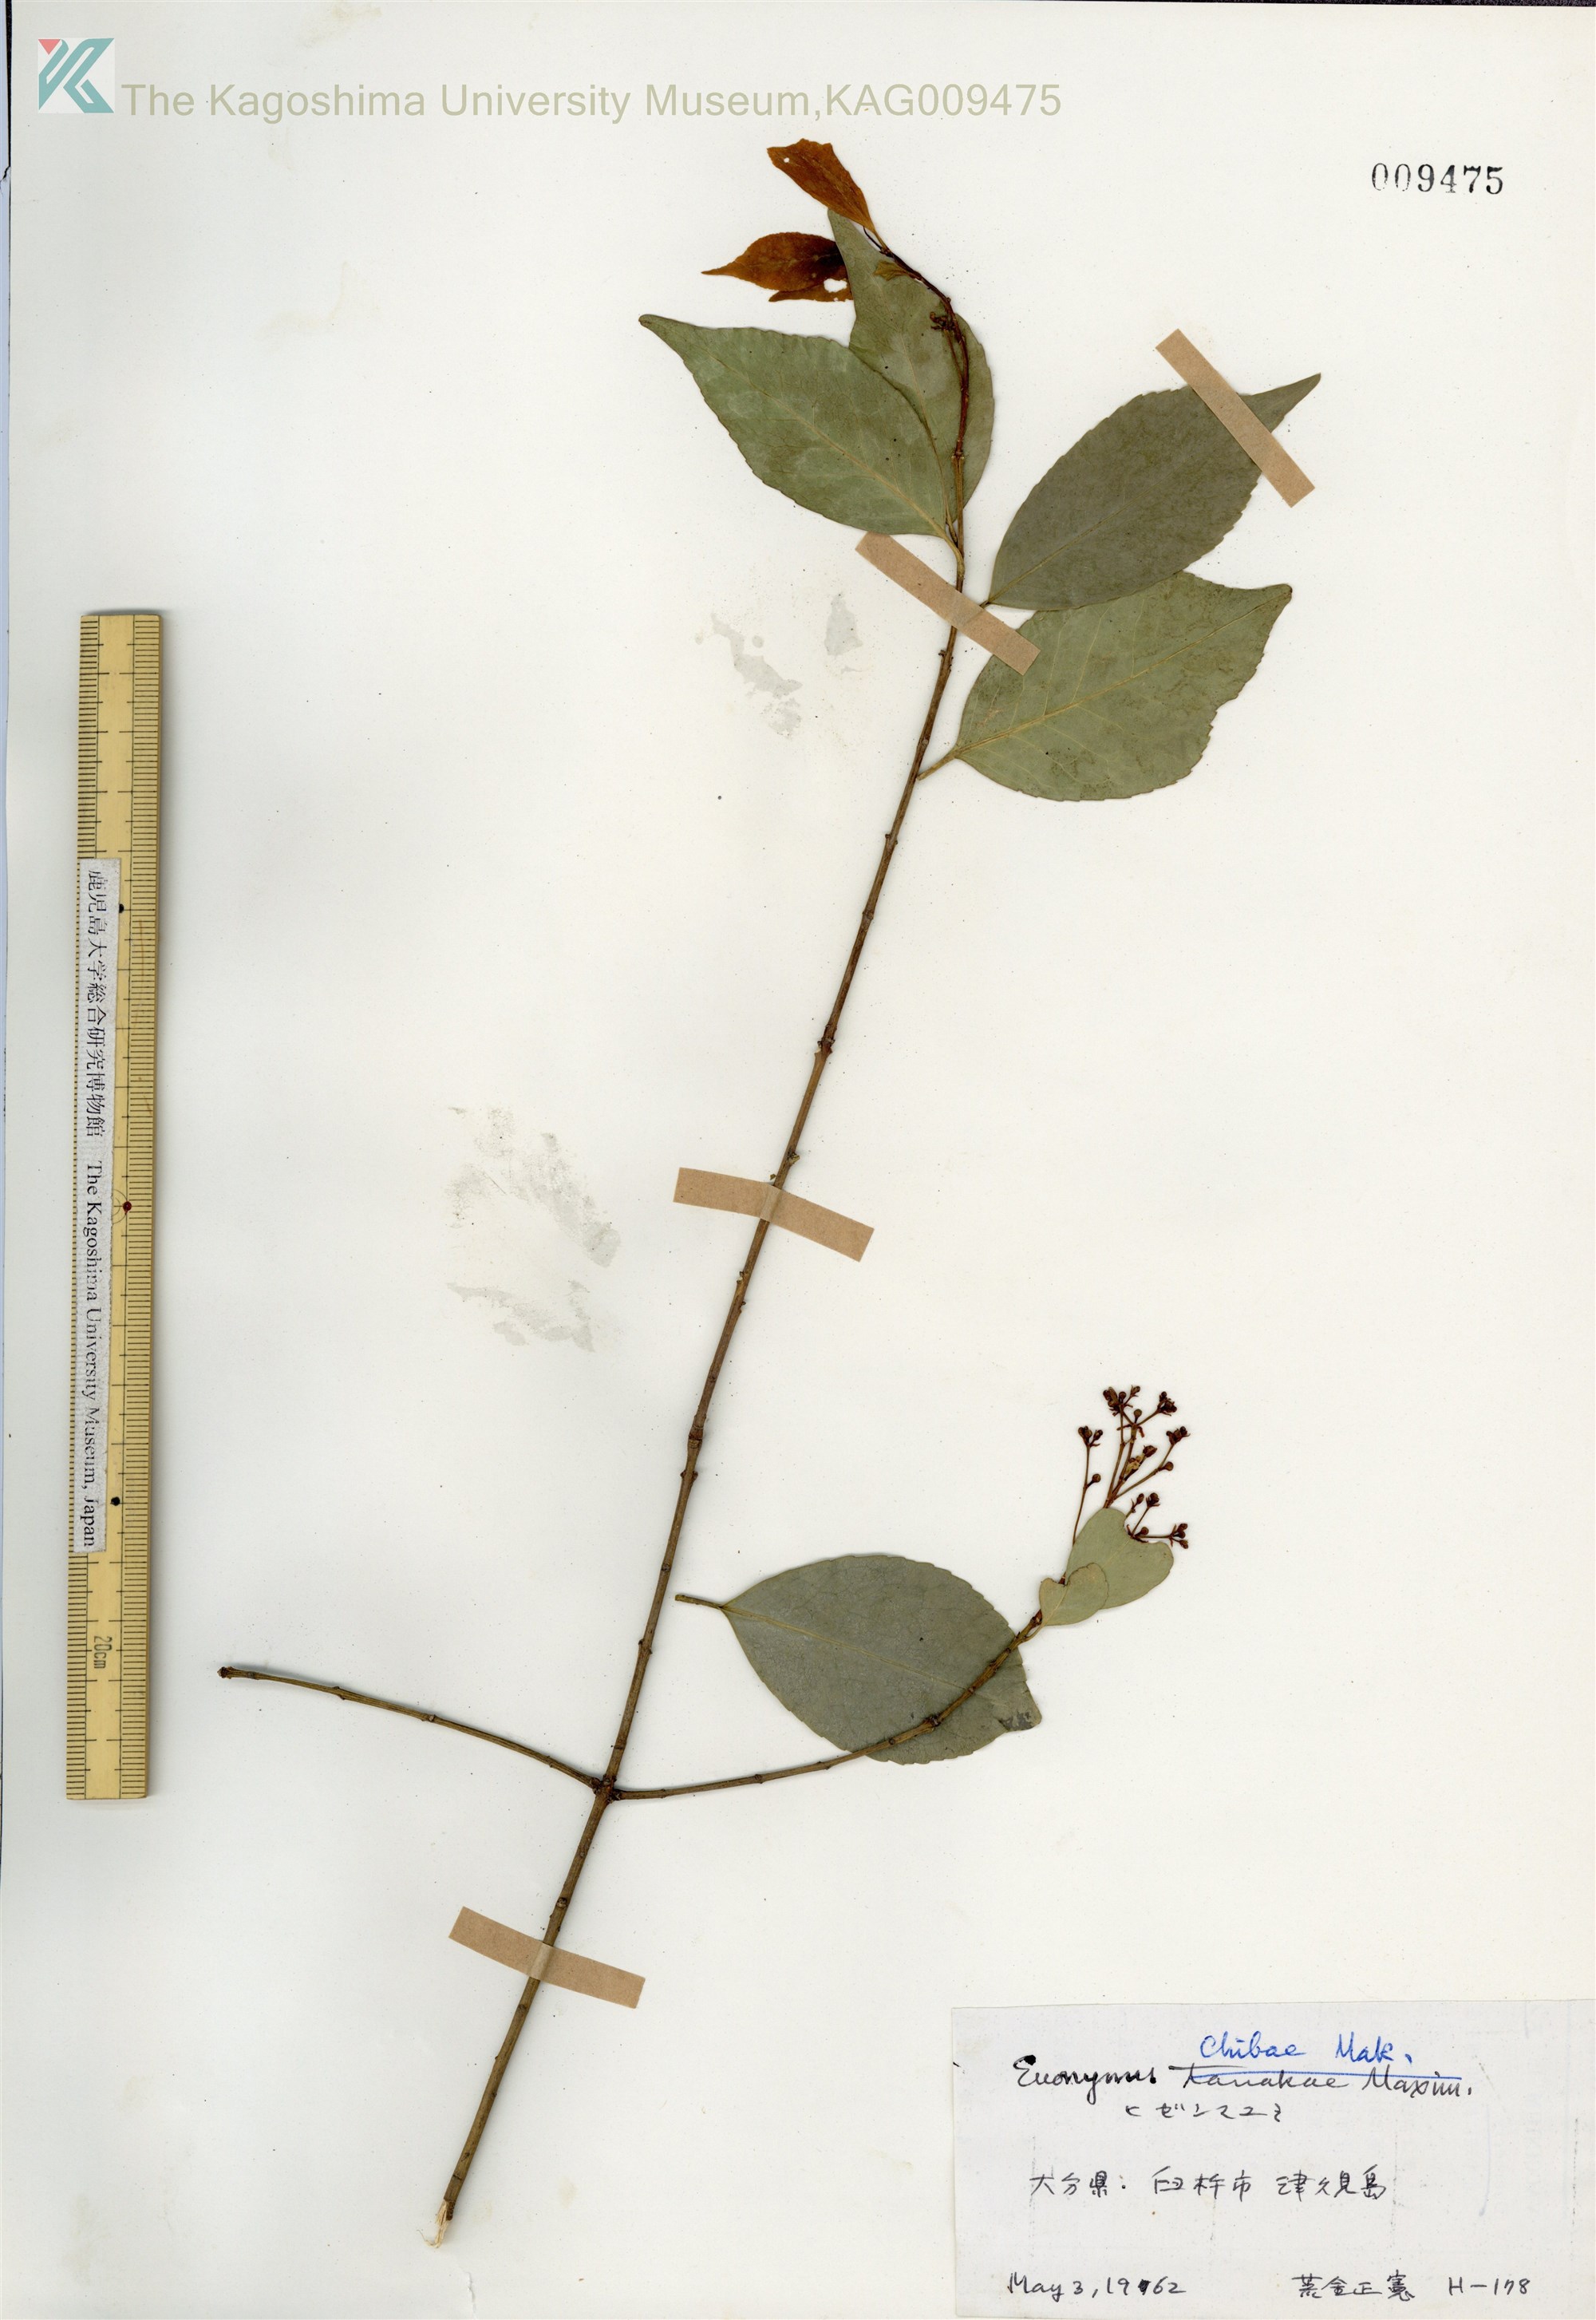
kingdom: Plantae
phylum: Tracheophyta
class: Magnoliopsida
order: Celastrales
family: Celastraceae
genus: Euonymus
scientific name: Euonymus chibae
